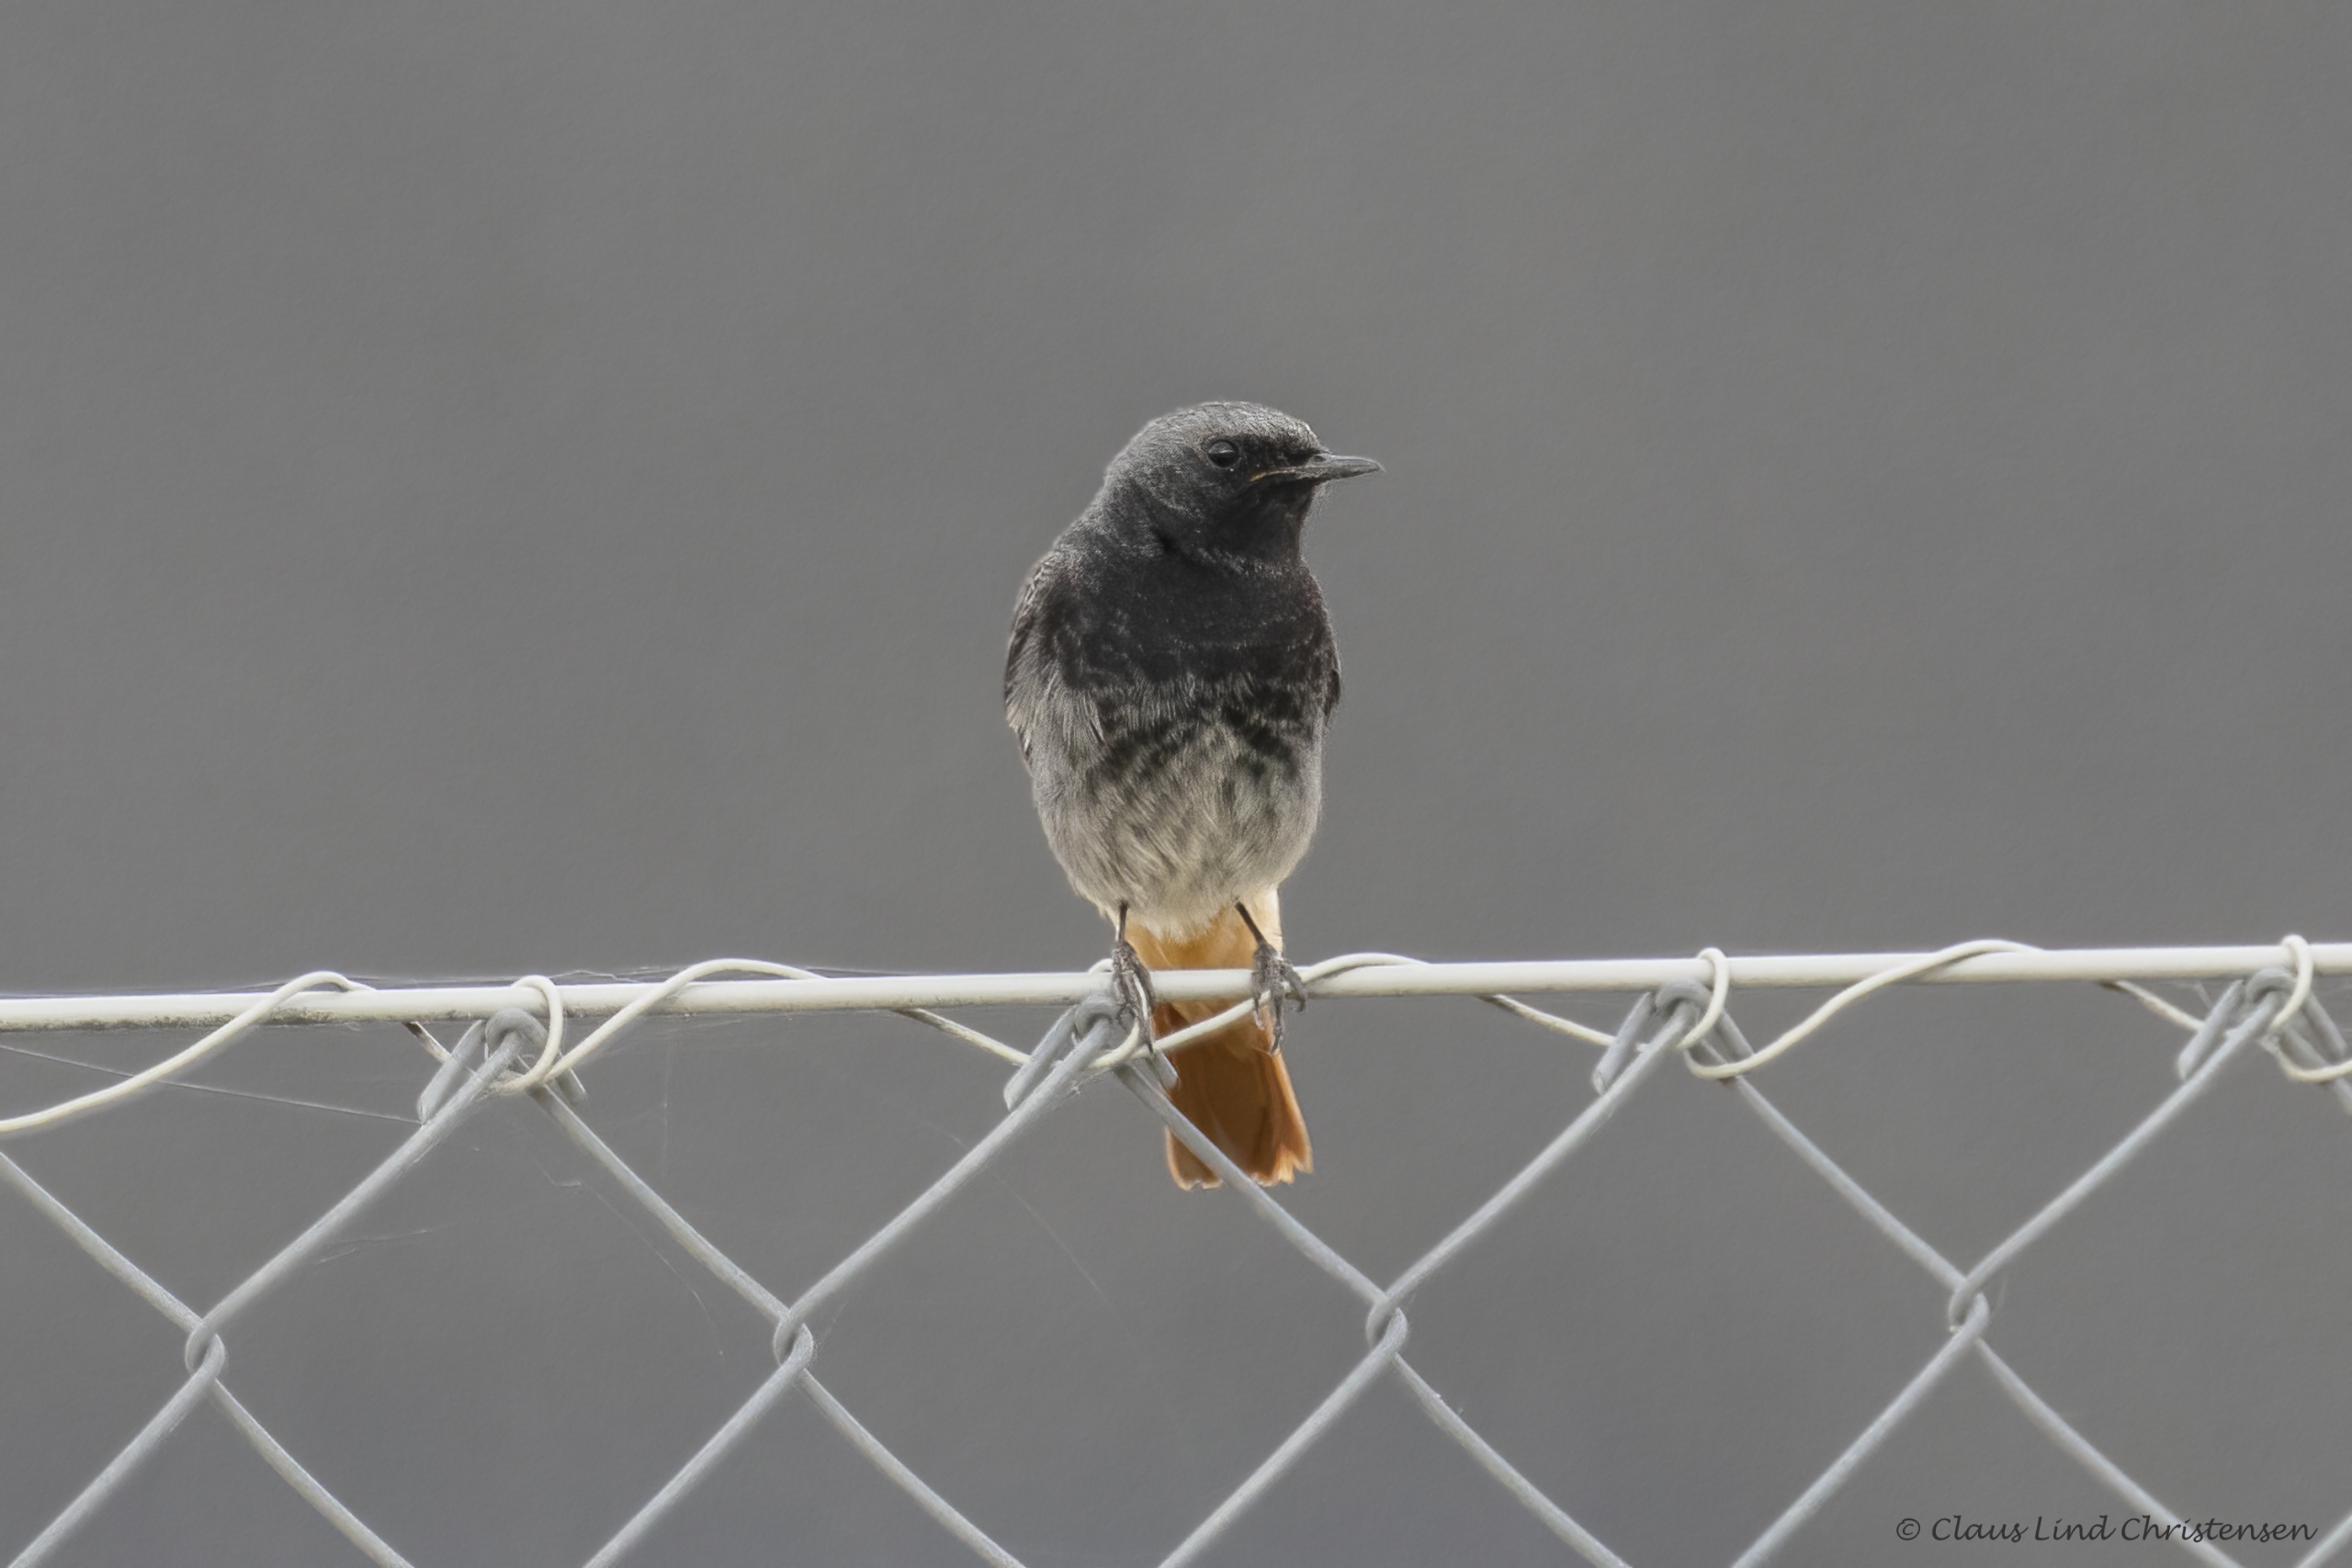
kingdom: Animalia
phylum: Chordata
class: Aves
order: Passeriformes
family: Muscicapidae
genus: Phoenicurus
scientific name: Phoenicurus ochruros
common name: Husrødstjert
